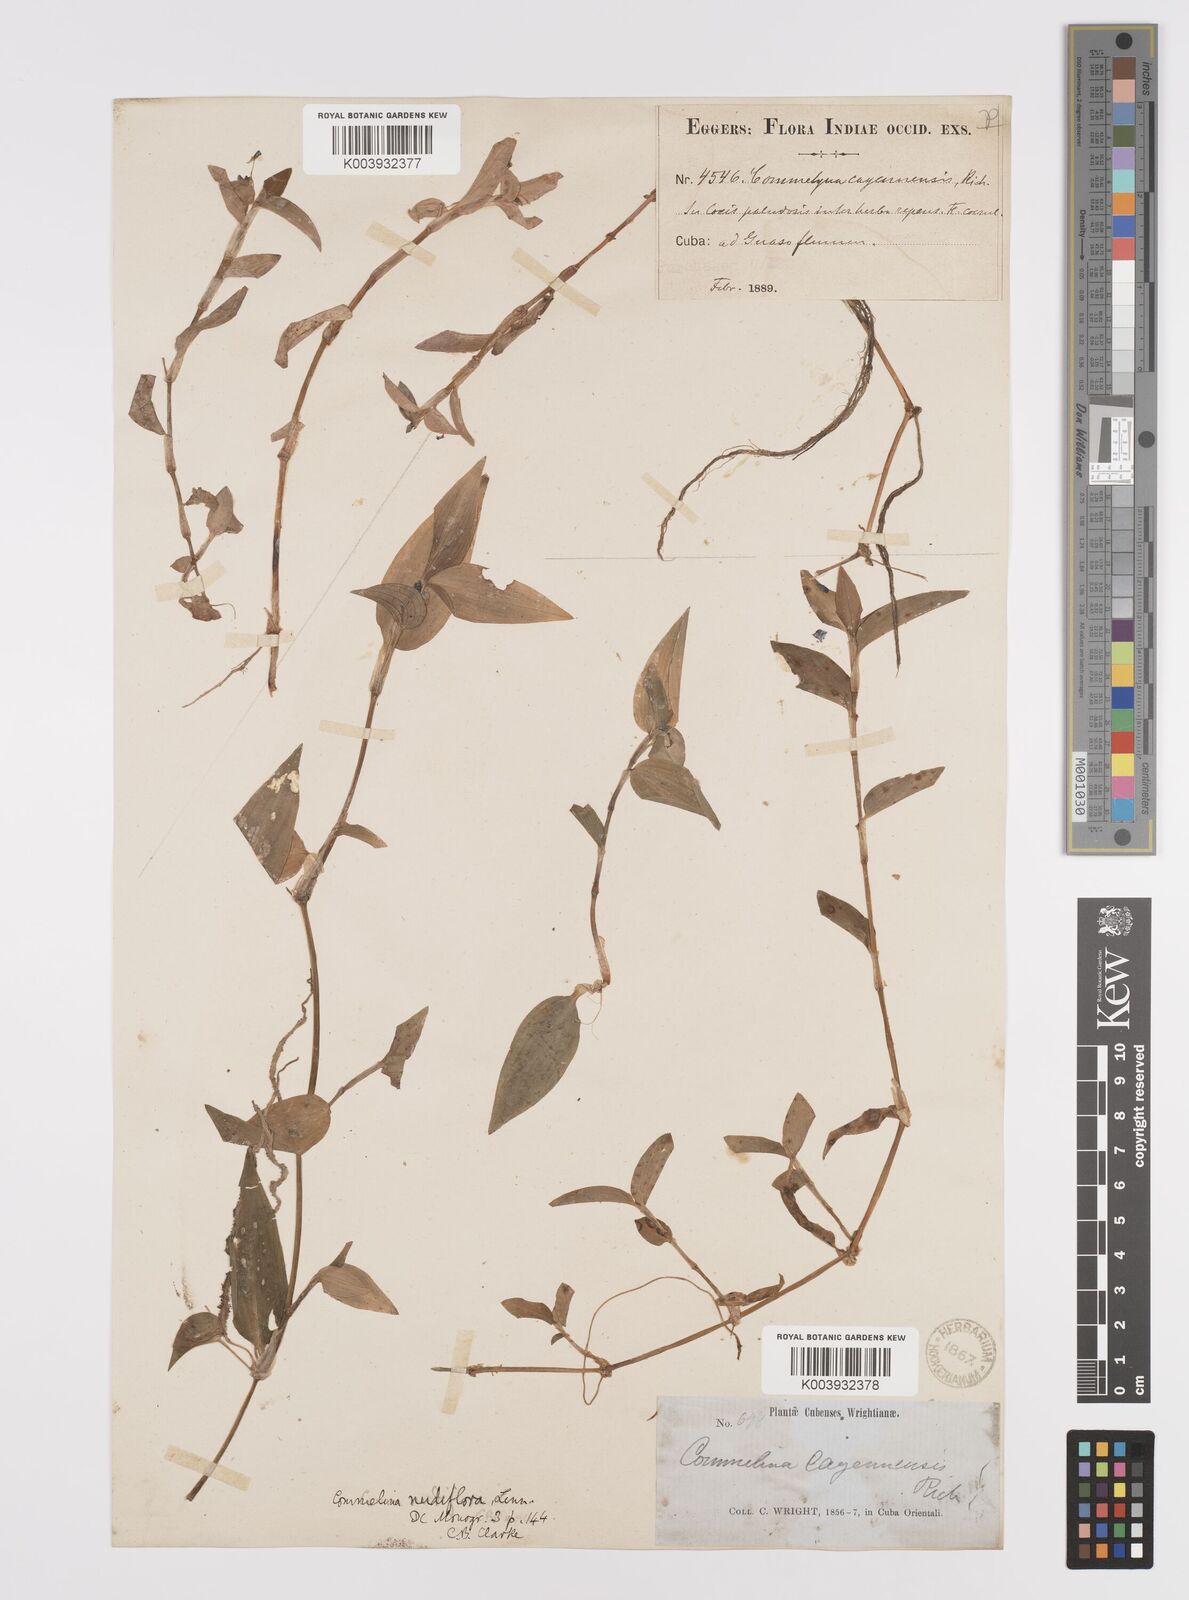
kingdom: Plantae
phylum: Tracheophyta
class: Liliopsida
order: Commelinales
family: Commelinaceae
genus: Commelina
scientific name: Commelina
